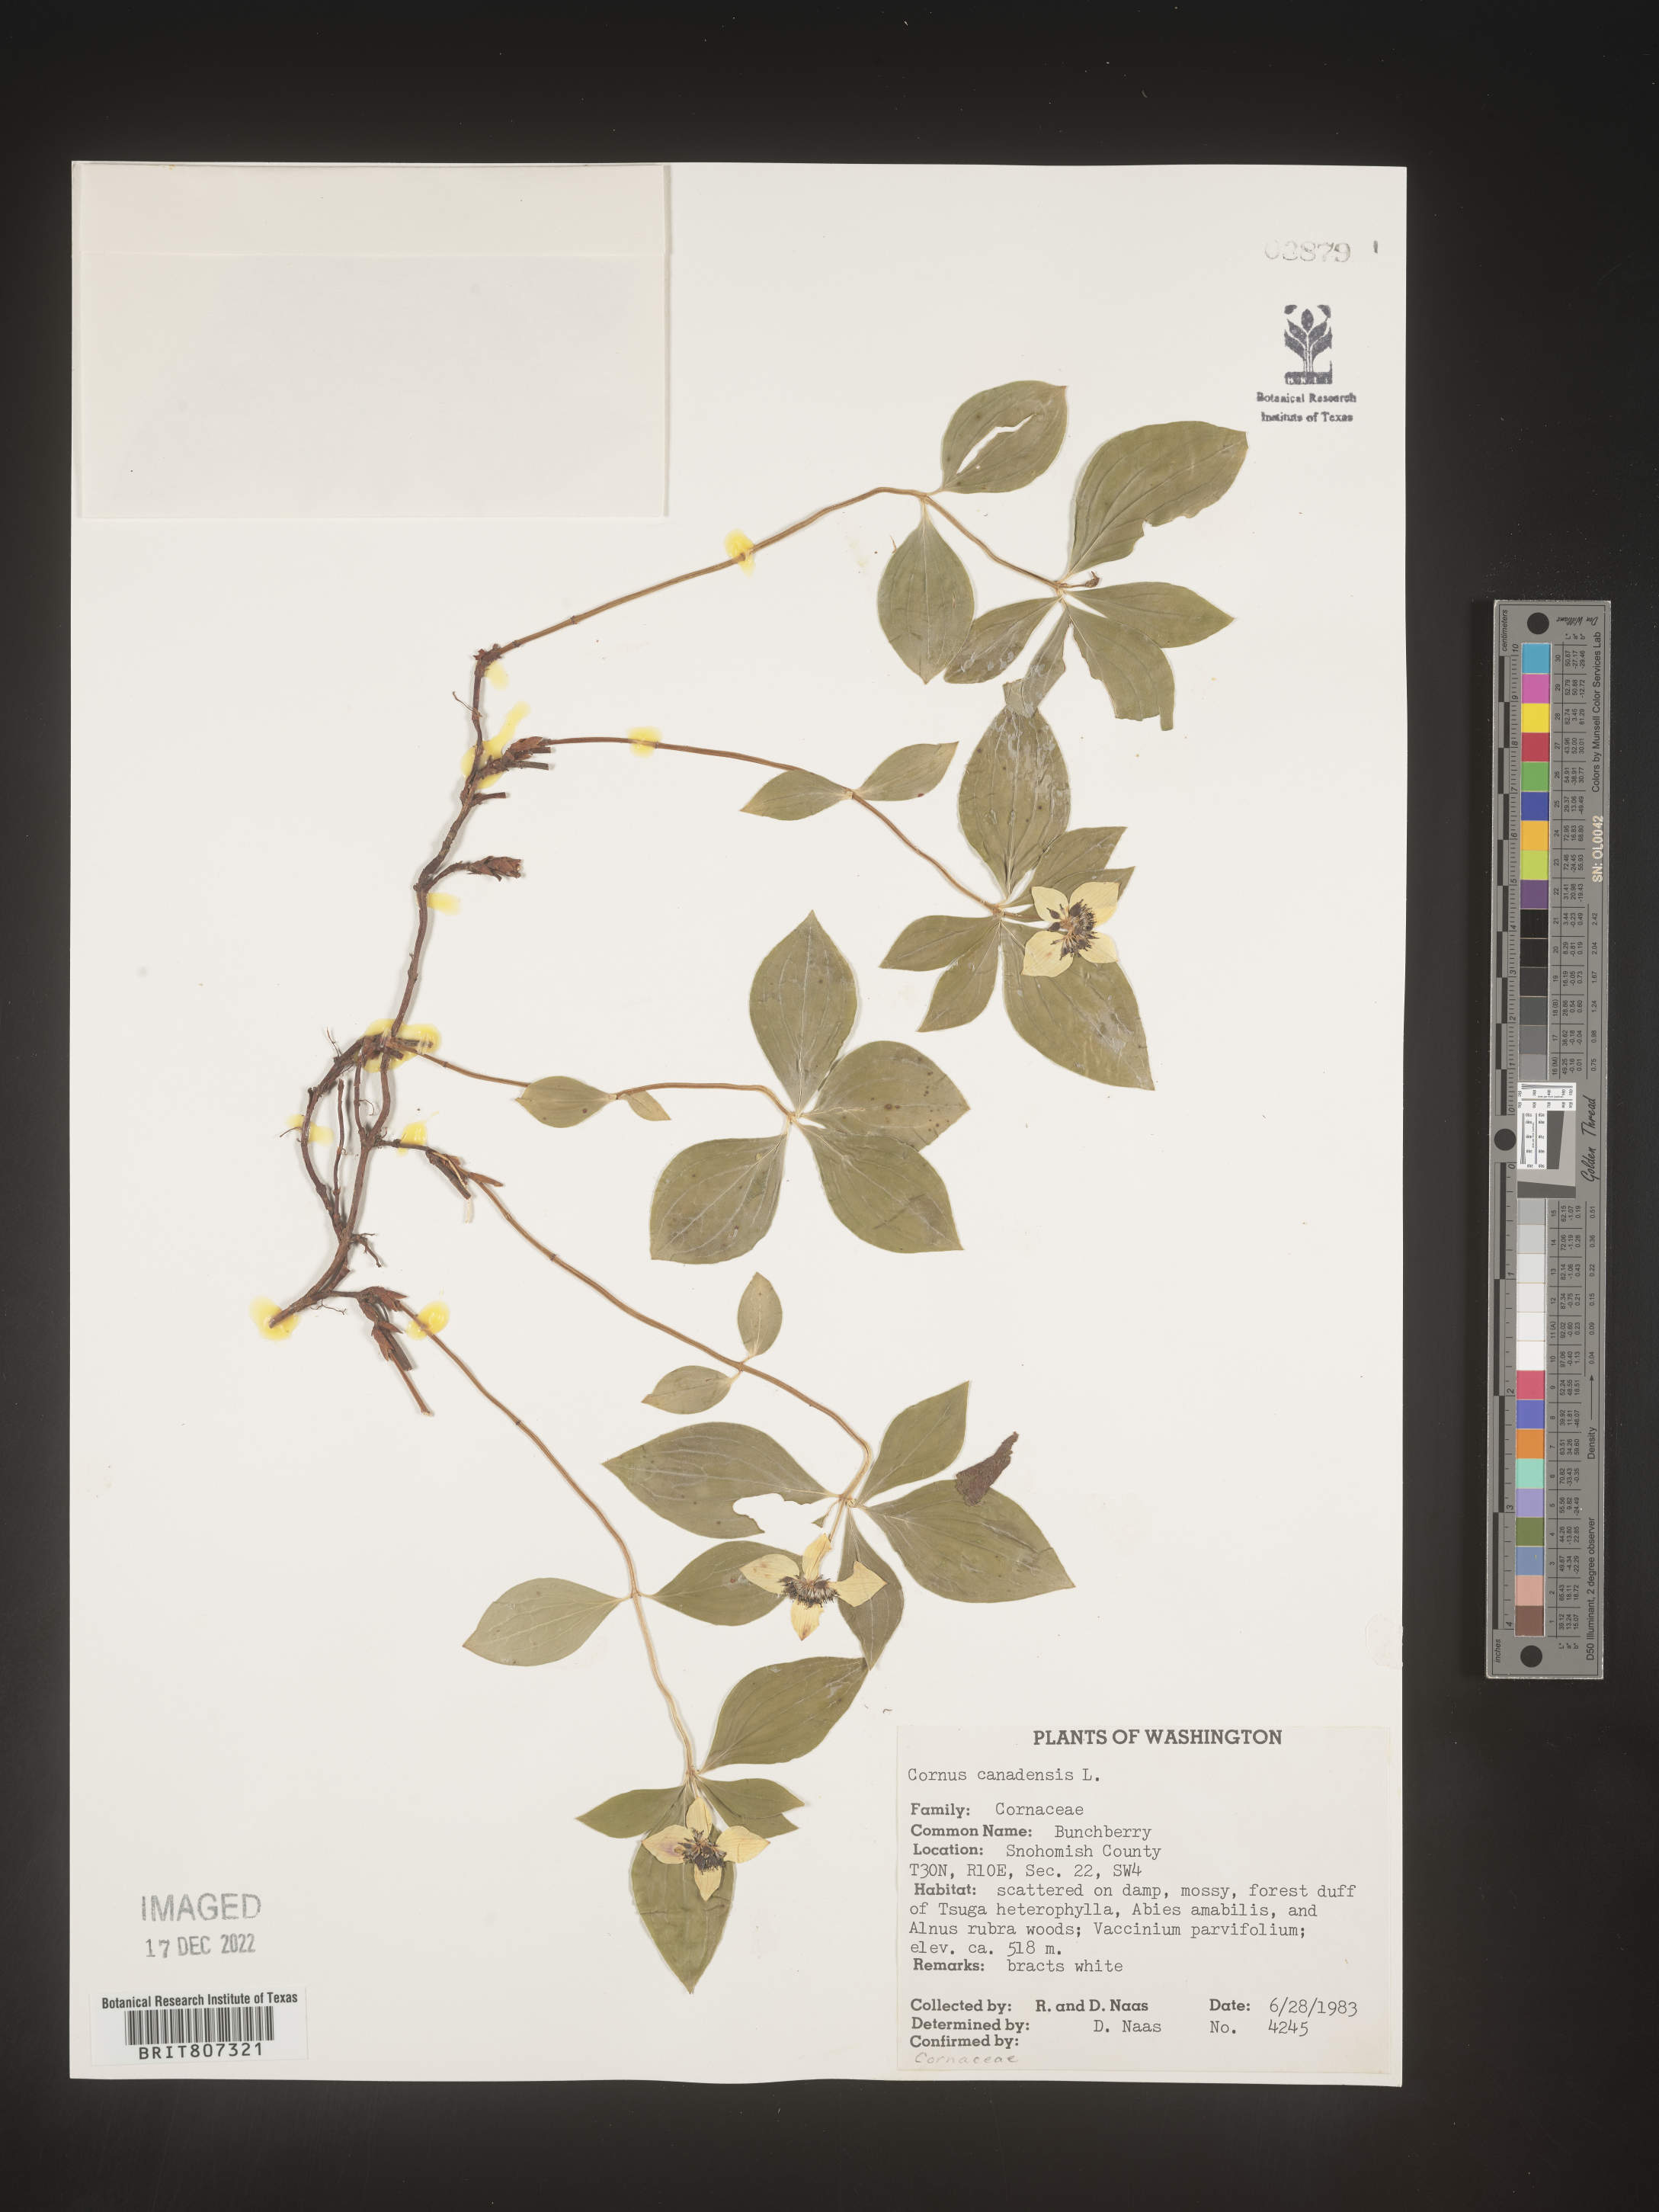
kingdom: Plantae
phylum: Tracheophyta
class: Magnoliopsida
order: Cornales
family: Cornaceae
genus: Cornus
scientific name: Cornus canadensis
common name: Creeping dogwood
